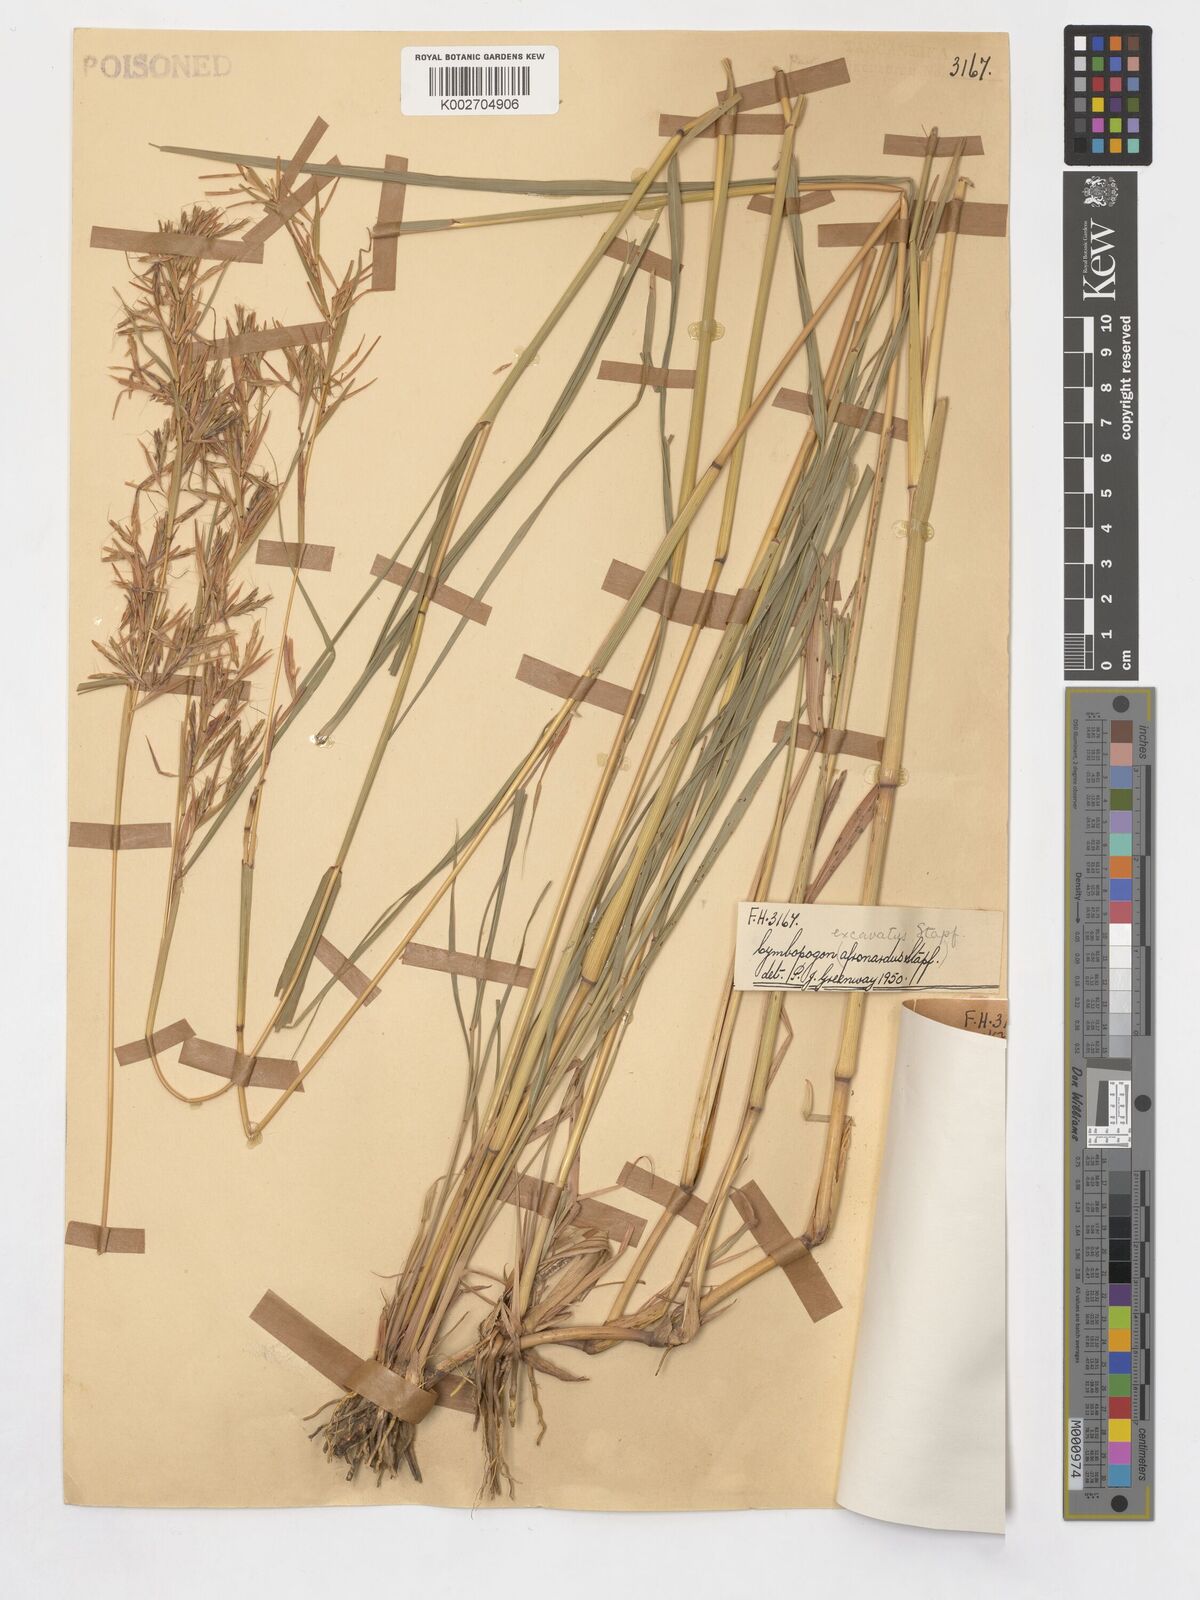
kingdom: Plantae
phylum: Tracheophyta
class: Liliopsida
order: Poales
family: Poaceae
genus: Cymbopogon
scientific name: Cymbopogon caesius
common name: Kachi grass
